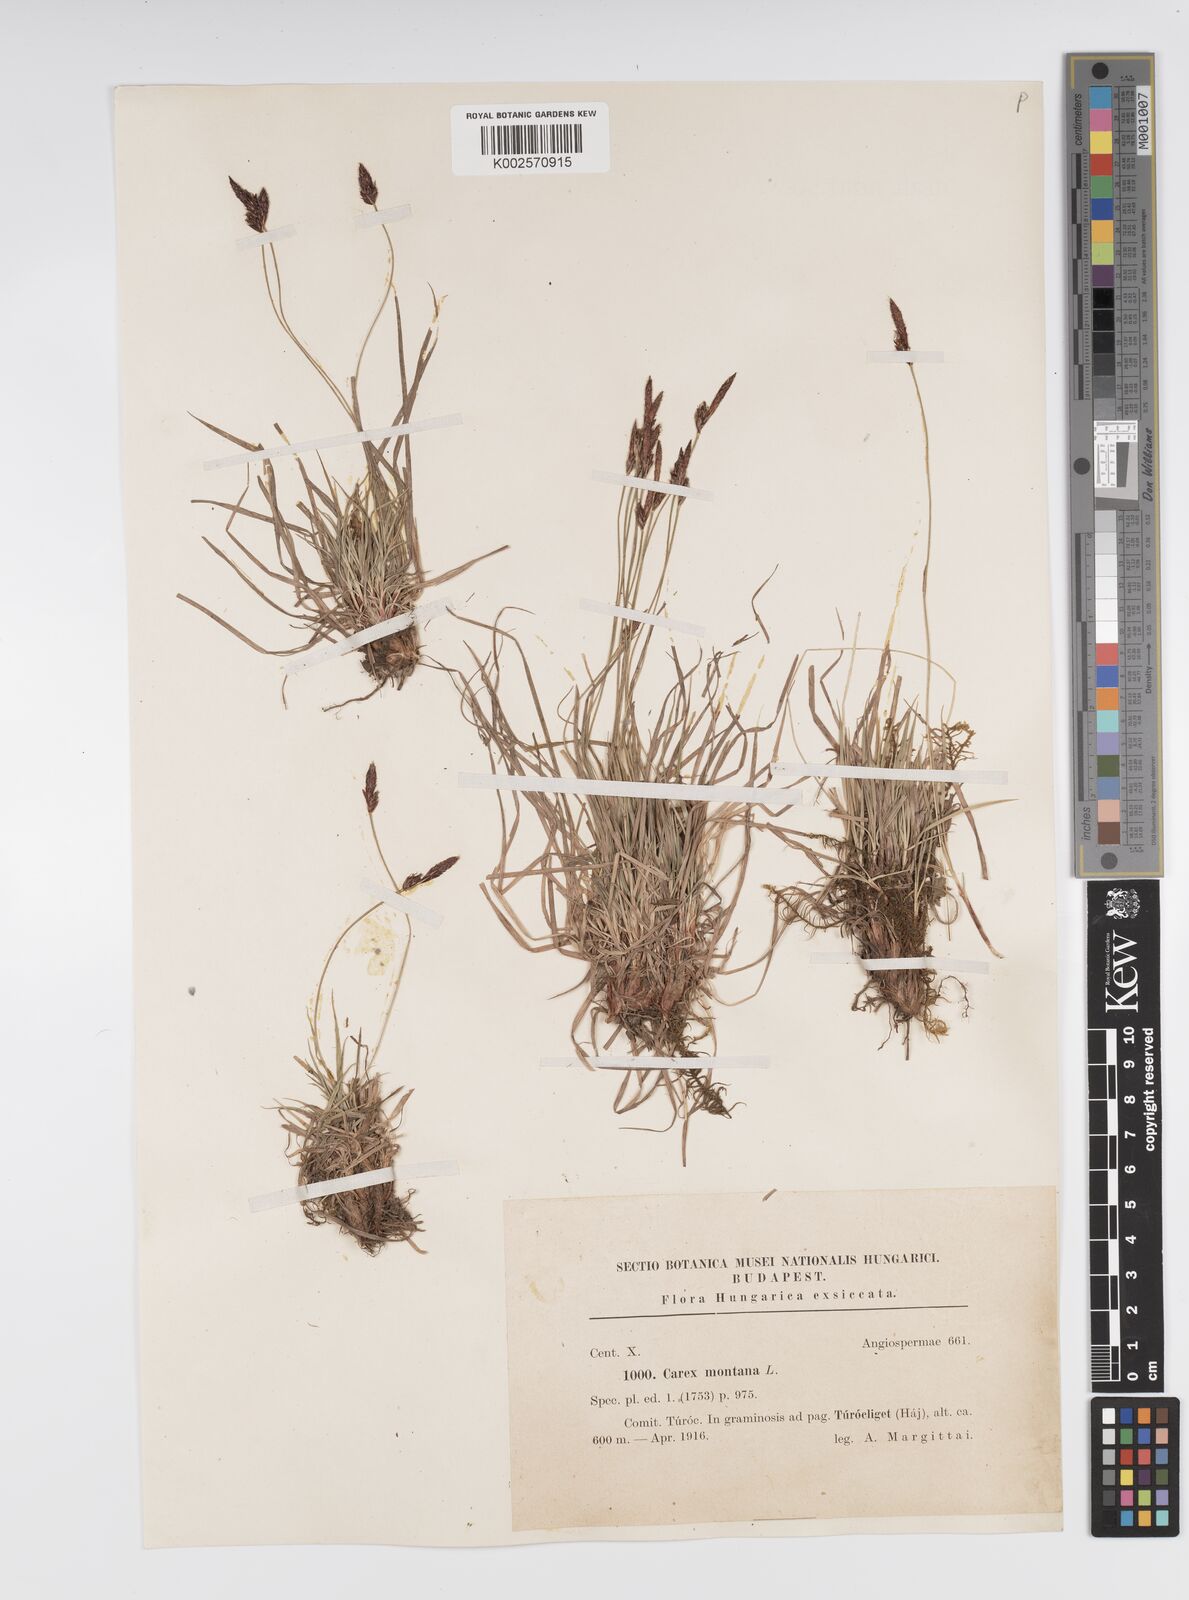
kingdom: Plantae
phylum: Tracheophyta
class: Liliopsida
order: Poales
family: Cyperaceae
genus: Carex
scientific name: Carex montana
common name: Soft-leaved sedge
